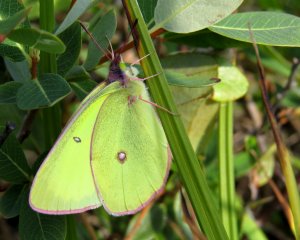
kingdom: Animalia
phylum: Arthropoda
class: Insecta
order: Lepidoptera
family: Pieridae
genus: Colias
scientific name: Colias interior
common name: Pink-edged Sulphur
